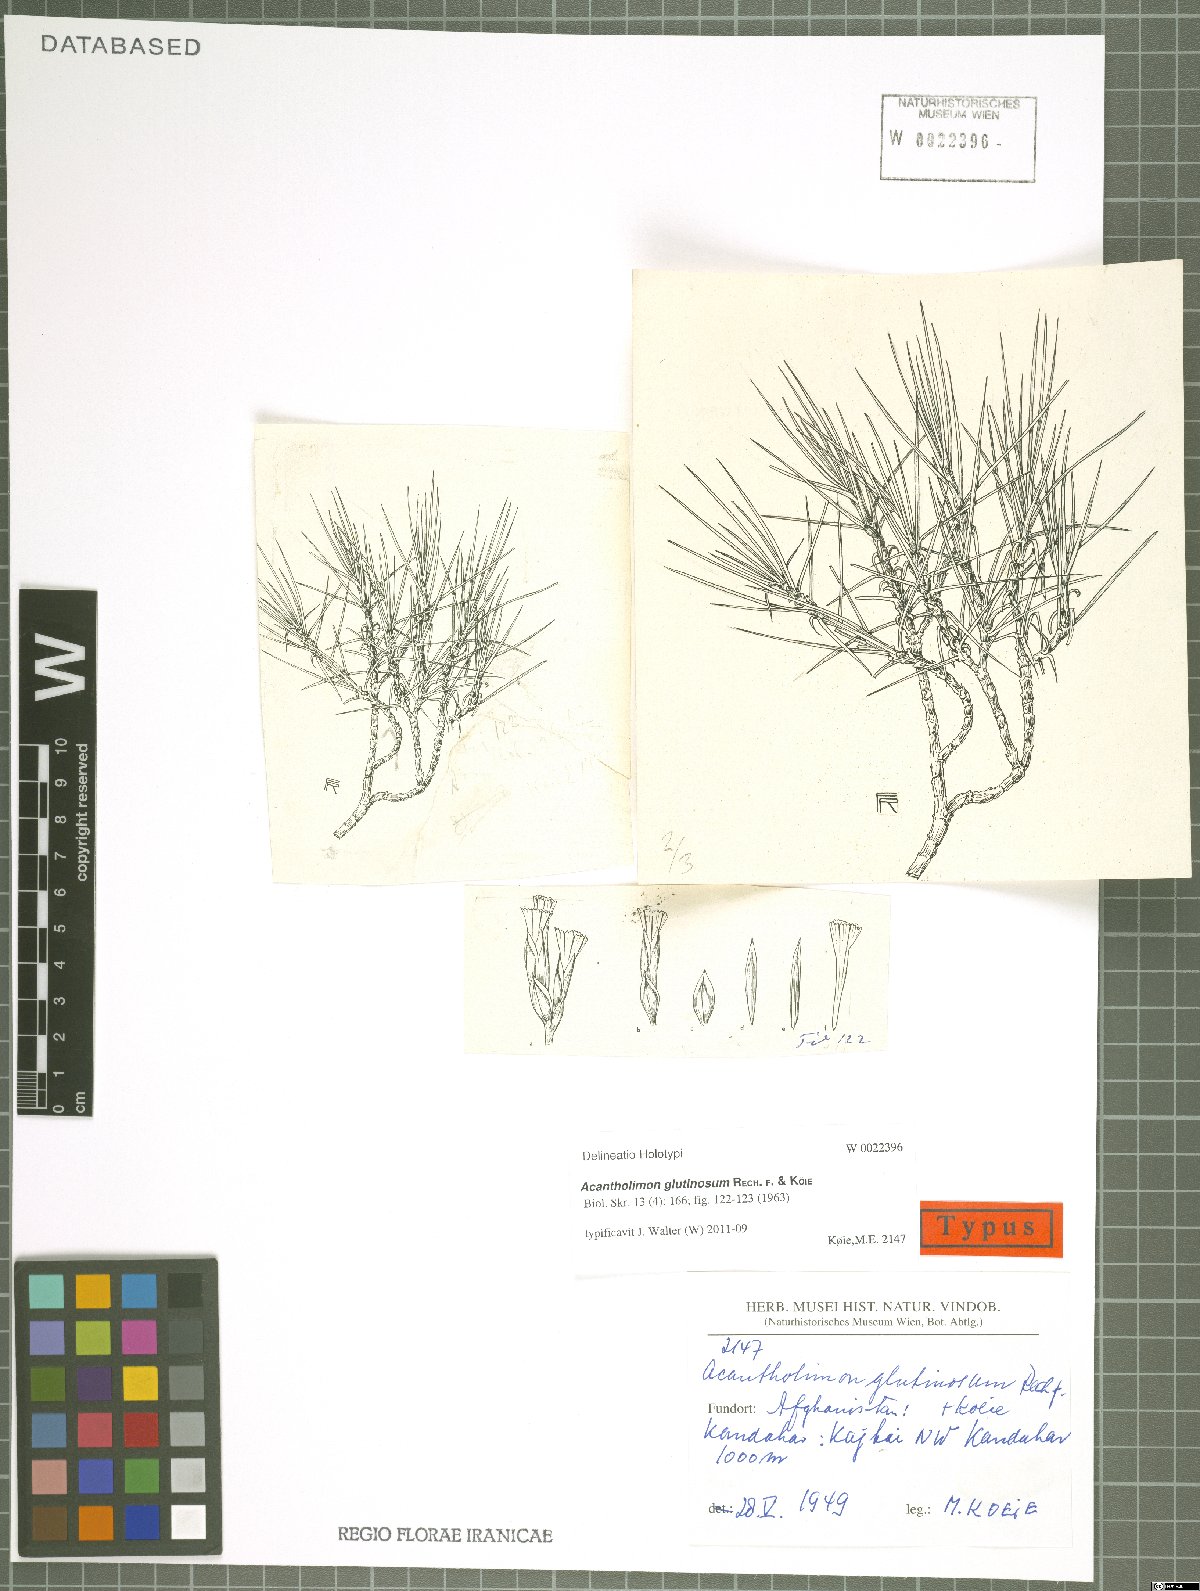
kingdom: Plantae
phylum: Tracheophyta
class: Magnoliopsida
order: Caryophyllales
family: Plumbaginaceae
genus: Acantholimon
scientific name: Acantholimon glutinosum
